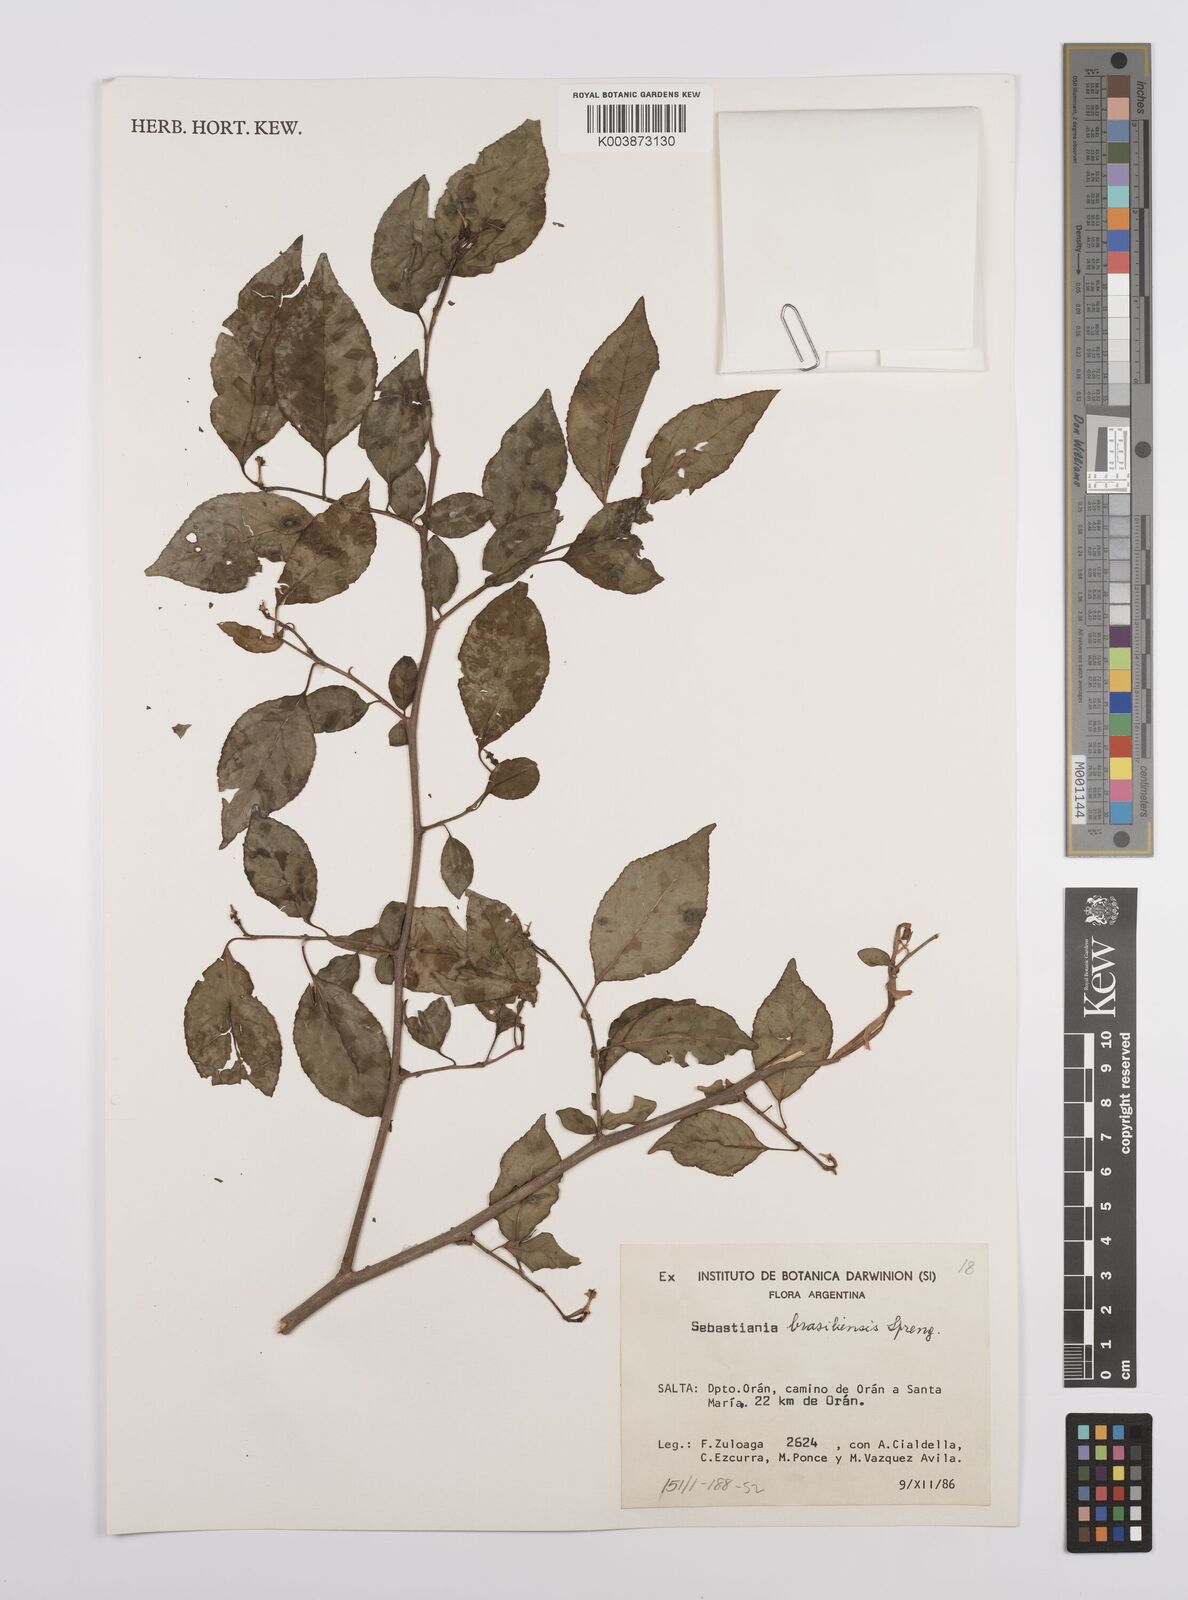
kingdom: Plantae
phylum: Tracheophyta
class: Magnoliopsida
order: Malpighiales
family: Euphorbiaceae
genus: Sebastiania
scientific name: Sebastiania brasiliensis
